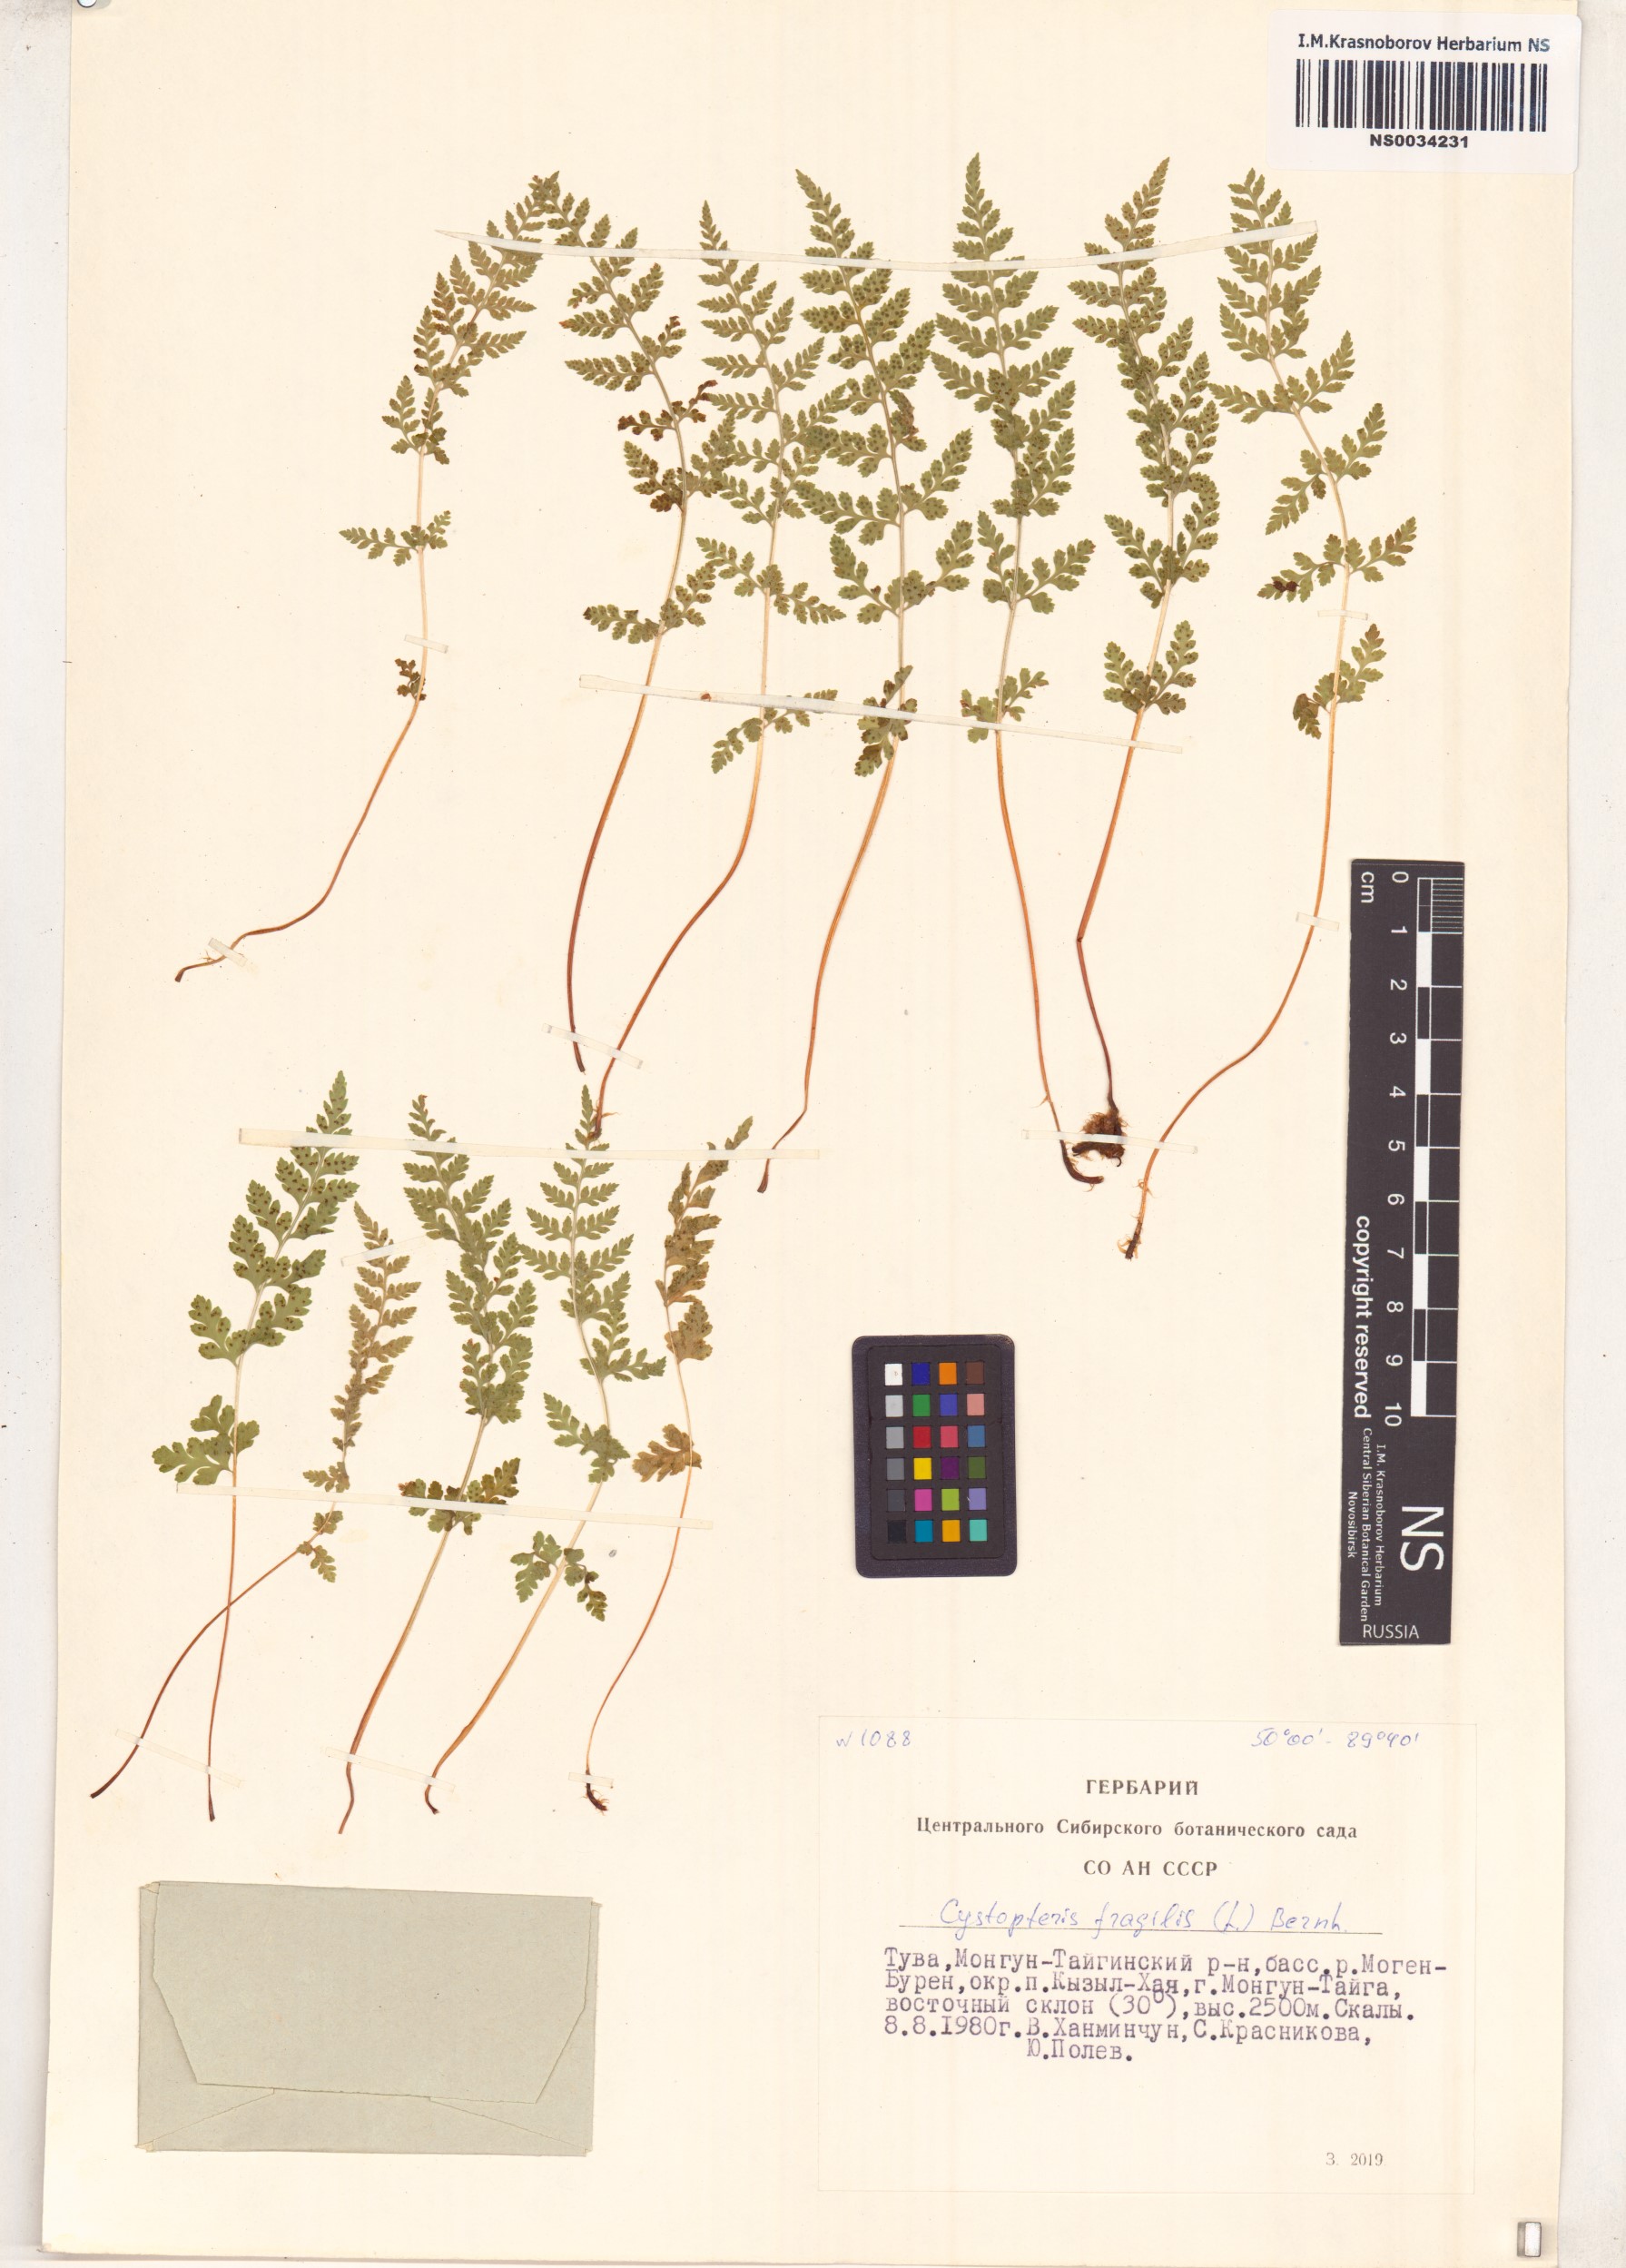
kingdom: Plantae
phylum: Tracheophyta
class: Polypodiopsida
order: Polypodiales
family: Cystopteridaceae
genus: Cystopteris
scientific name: Cystopteris fragilis
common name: Brittle bladder fern
